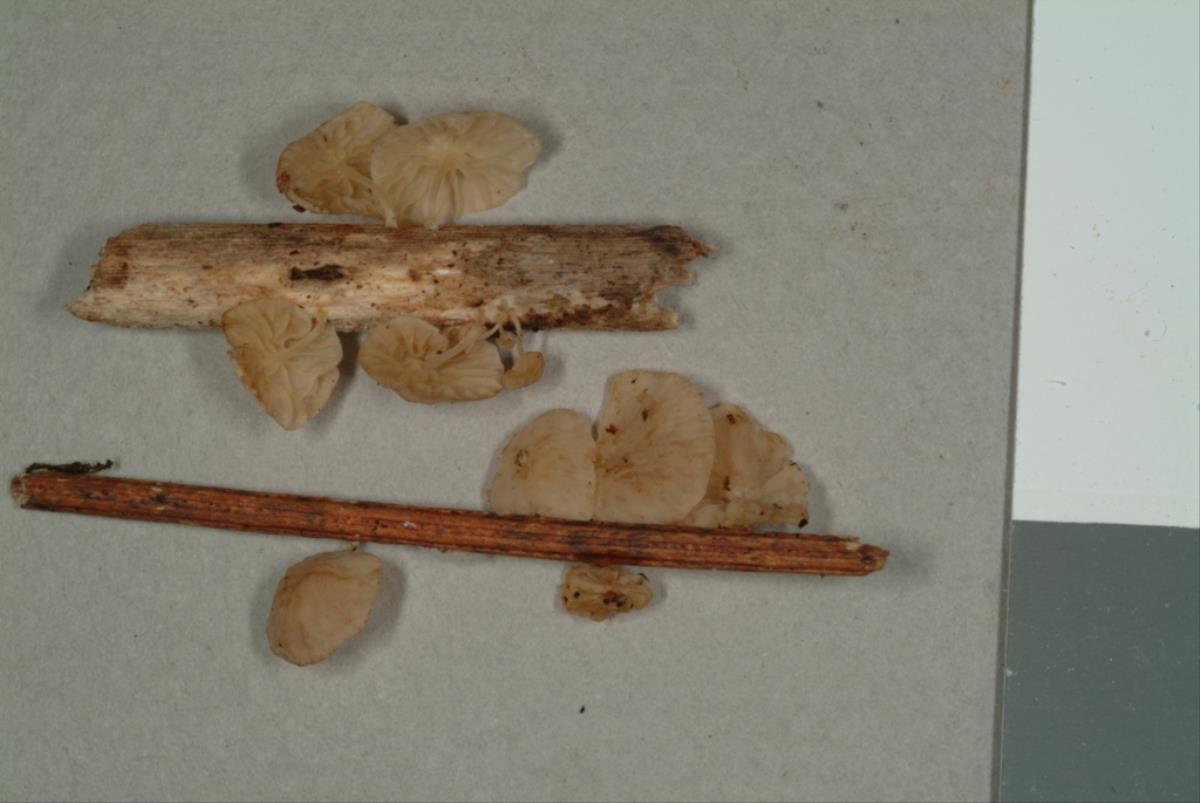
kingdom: Fungi
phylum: Basidiomycota
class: Agaricomycetes
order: Agaricales
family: Marasmiaceae
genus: Marasmius
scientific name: Marasmius
